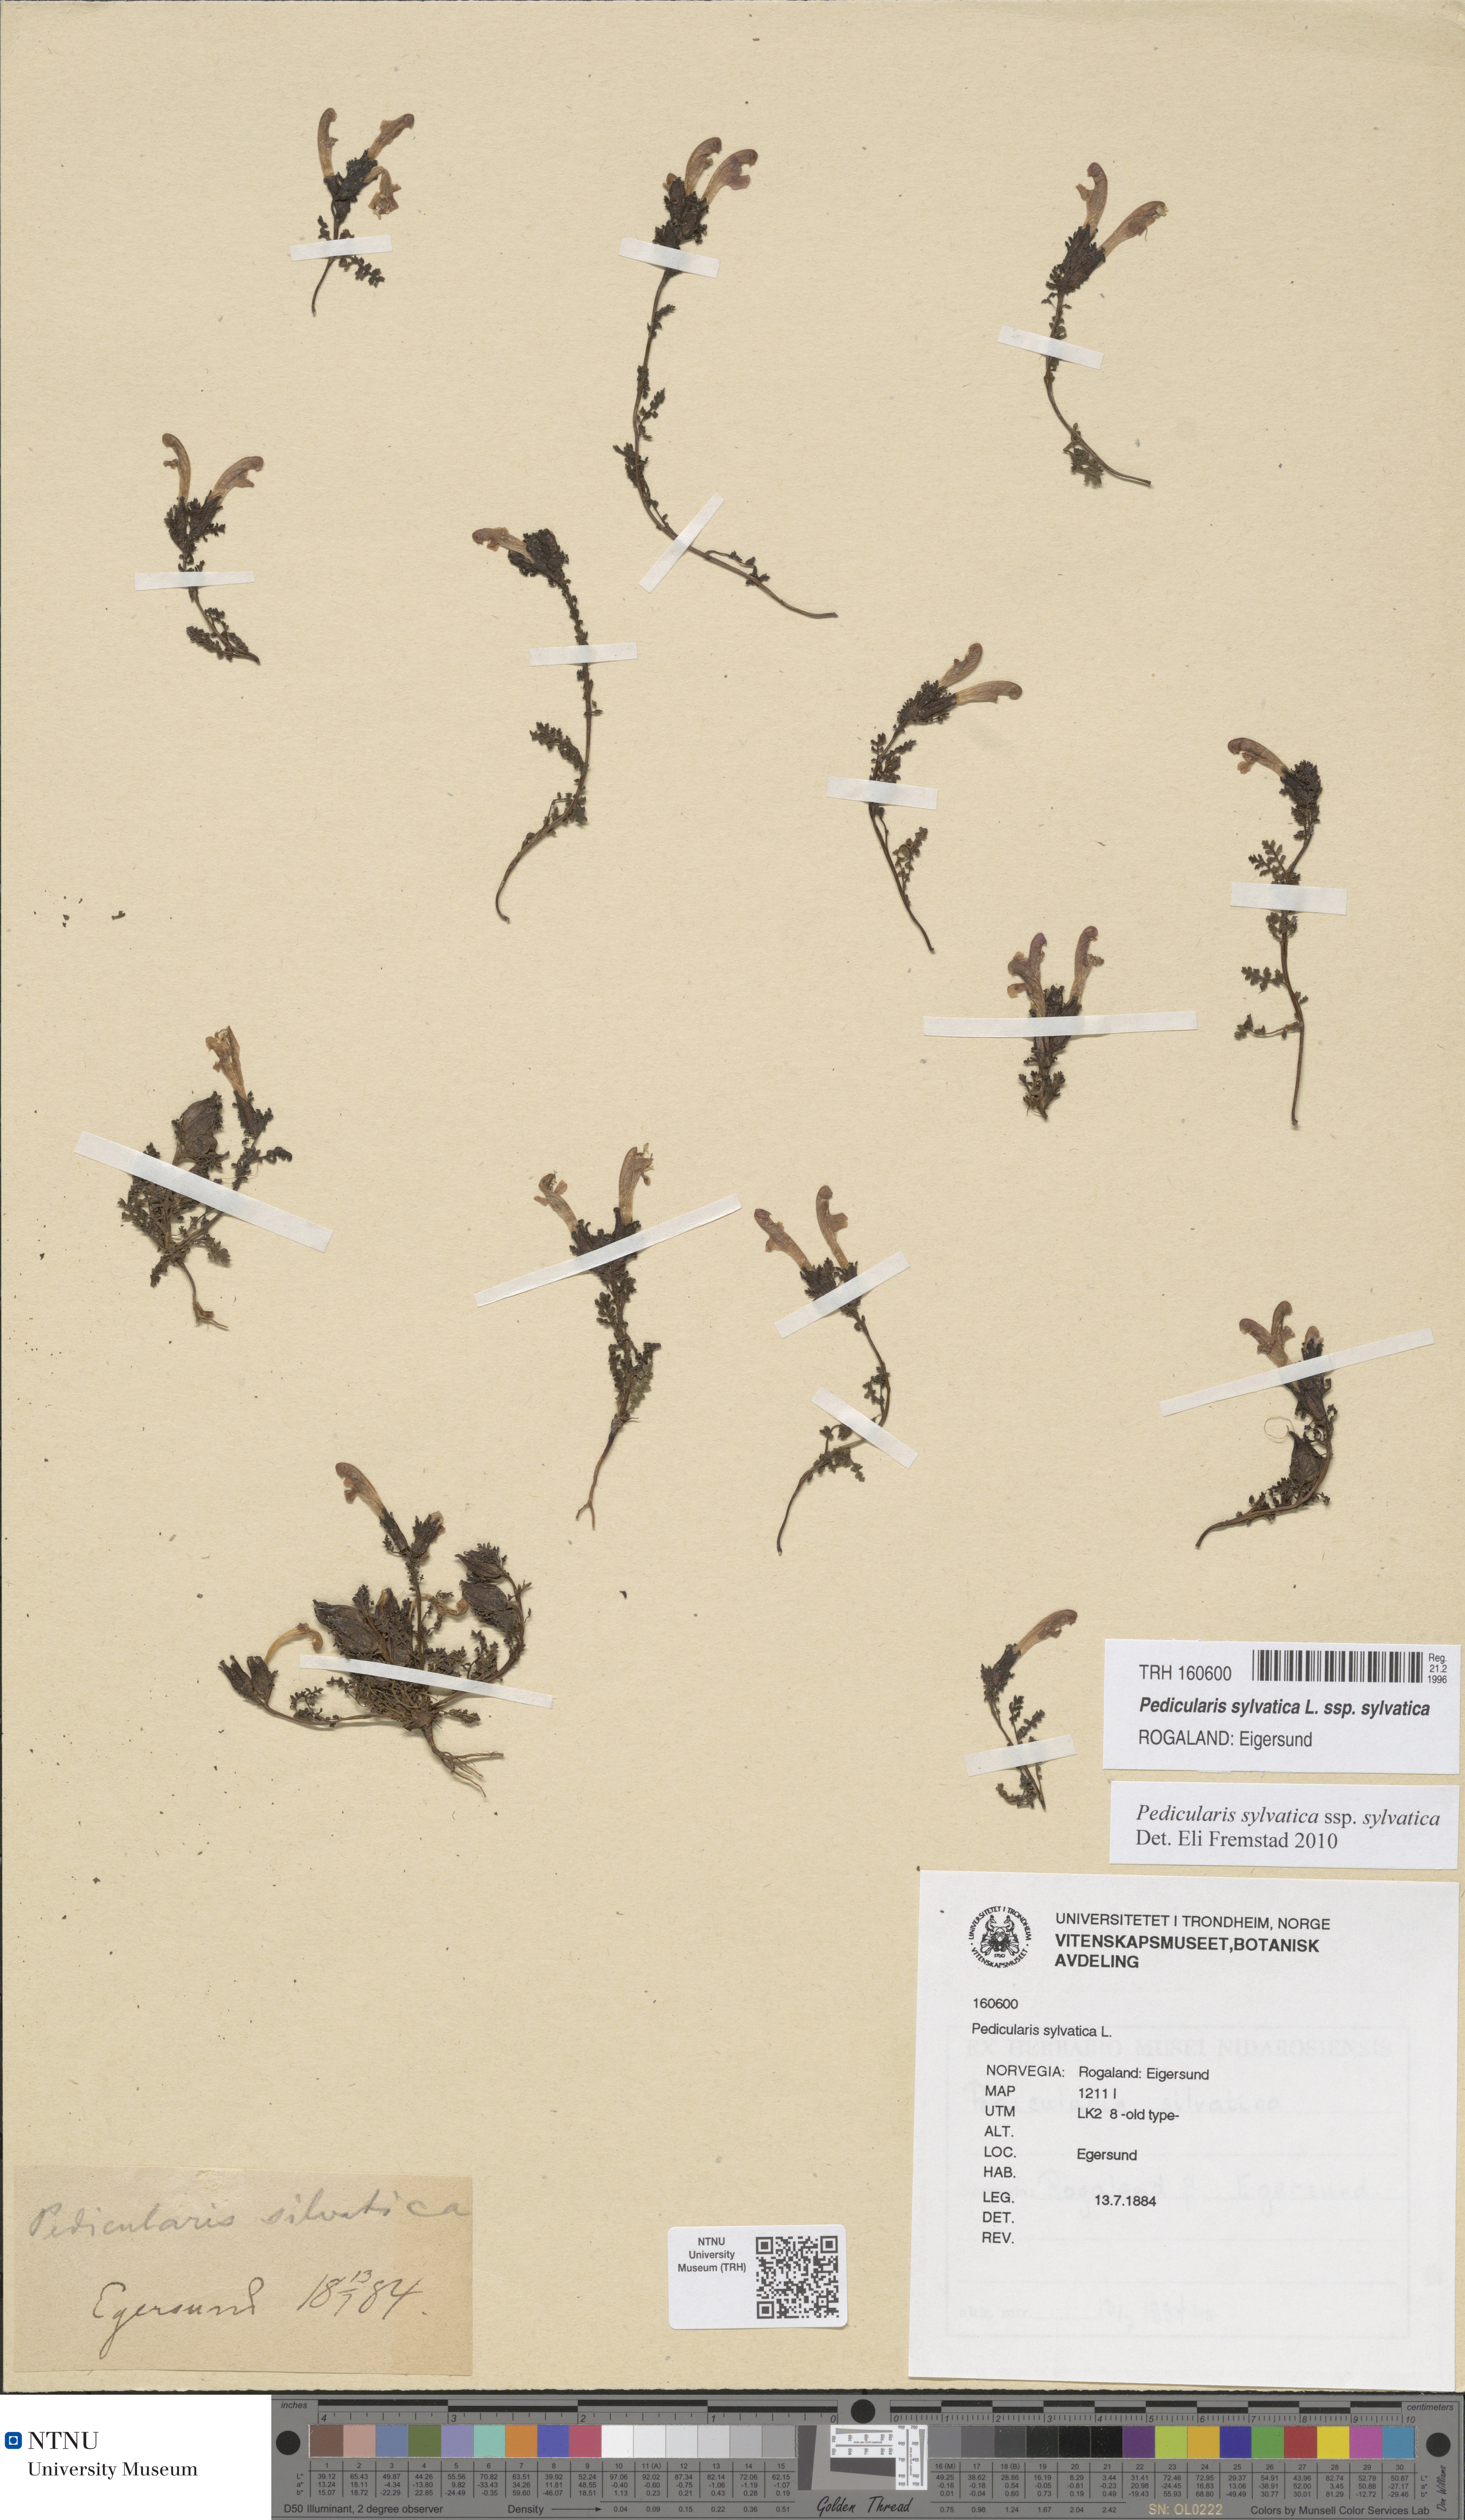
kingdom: Plantae
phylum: Tracheophyta
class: Magnoliopsida
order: Lamiales
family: Orobanchaceae
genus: Pedicularis
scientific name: Pedicularis sylvatica
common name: Lousewort
